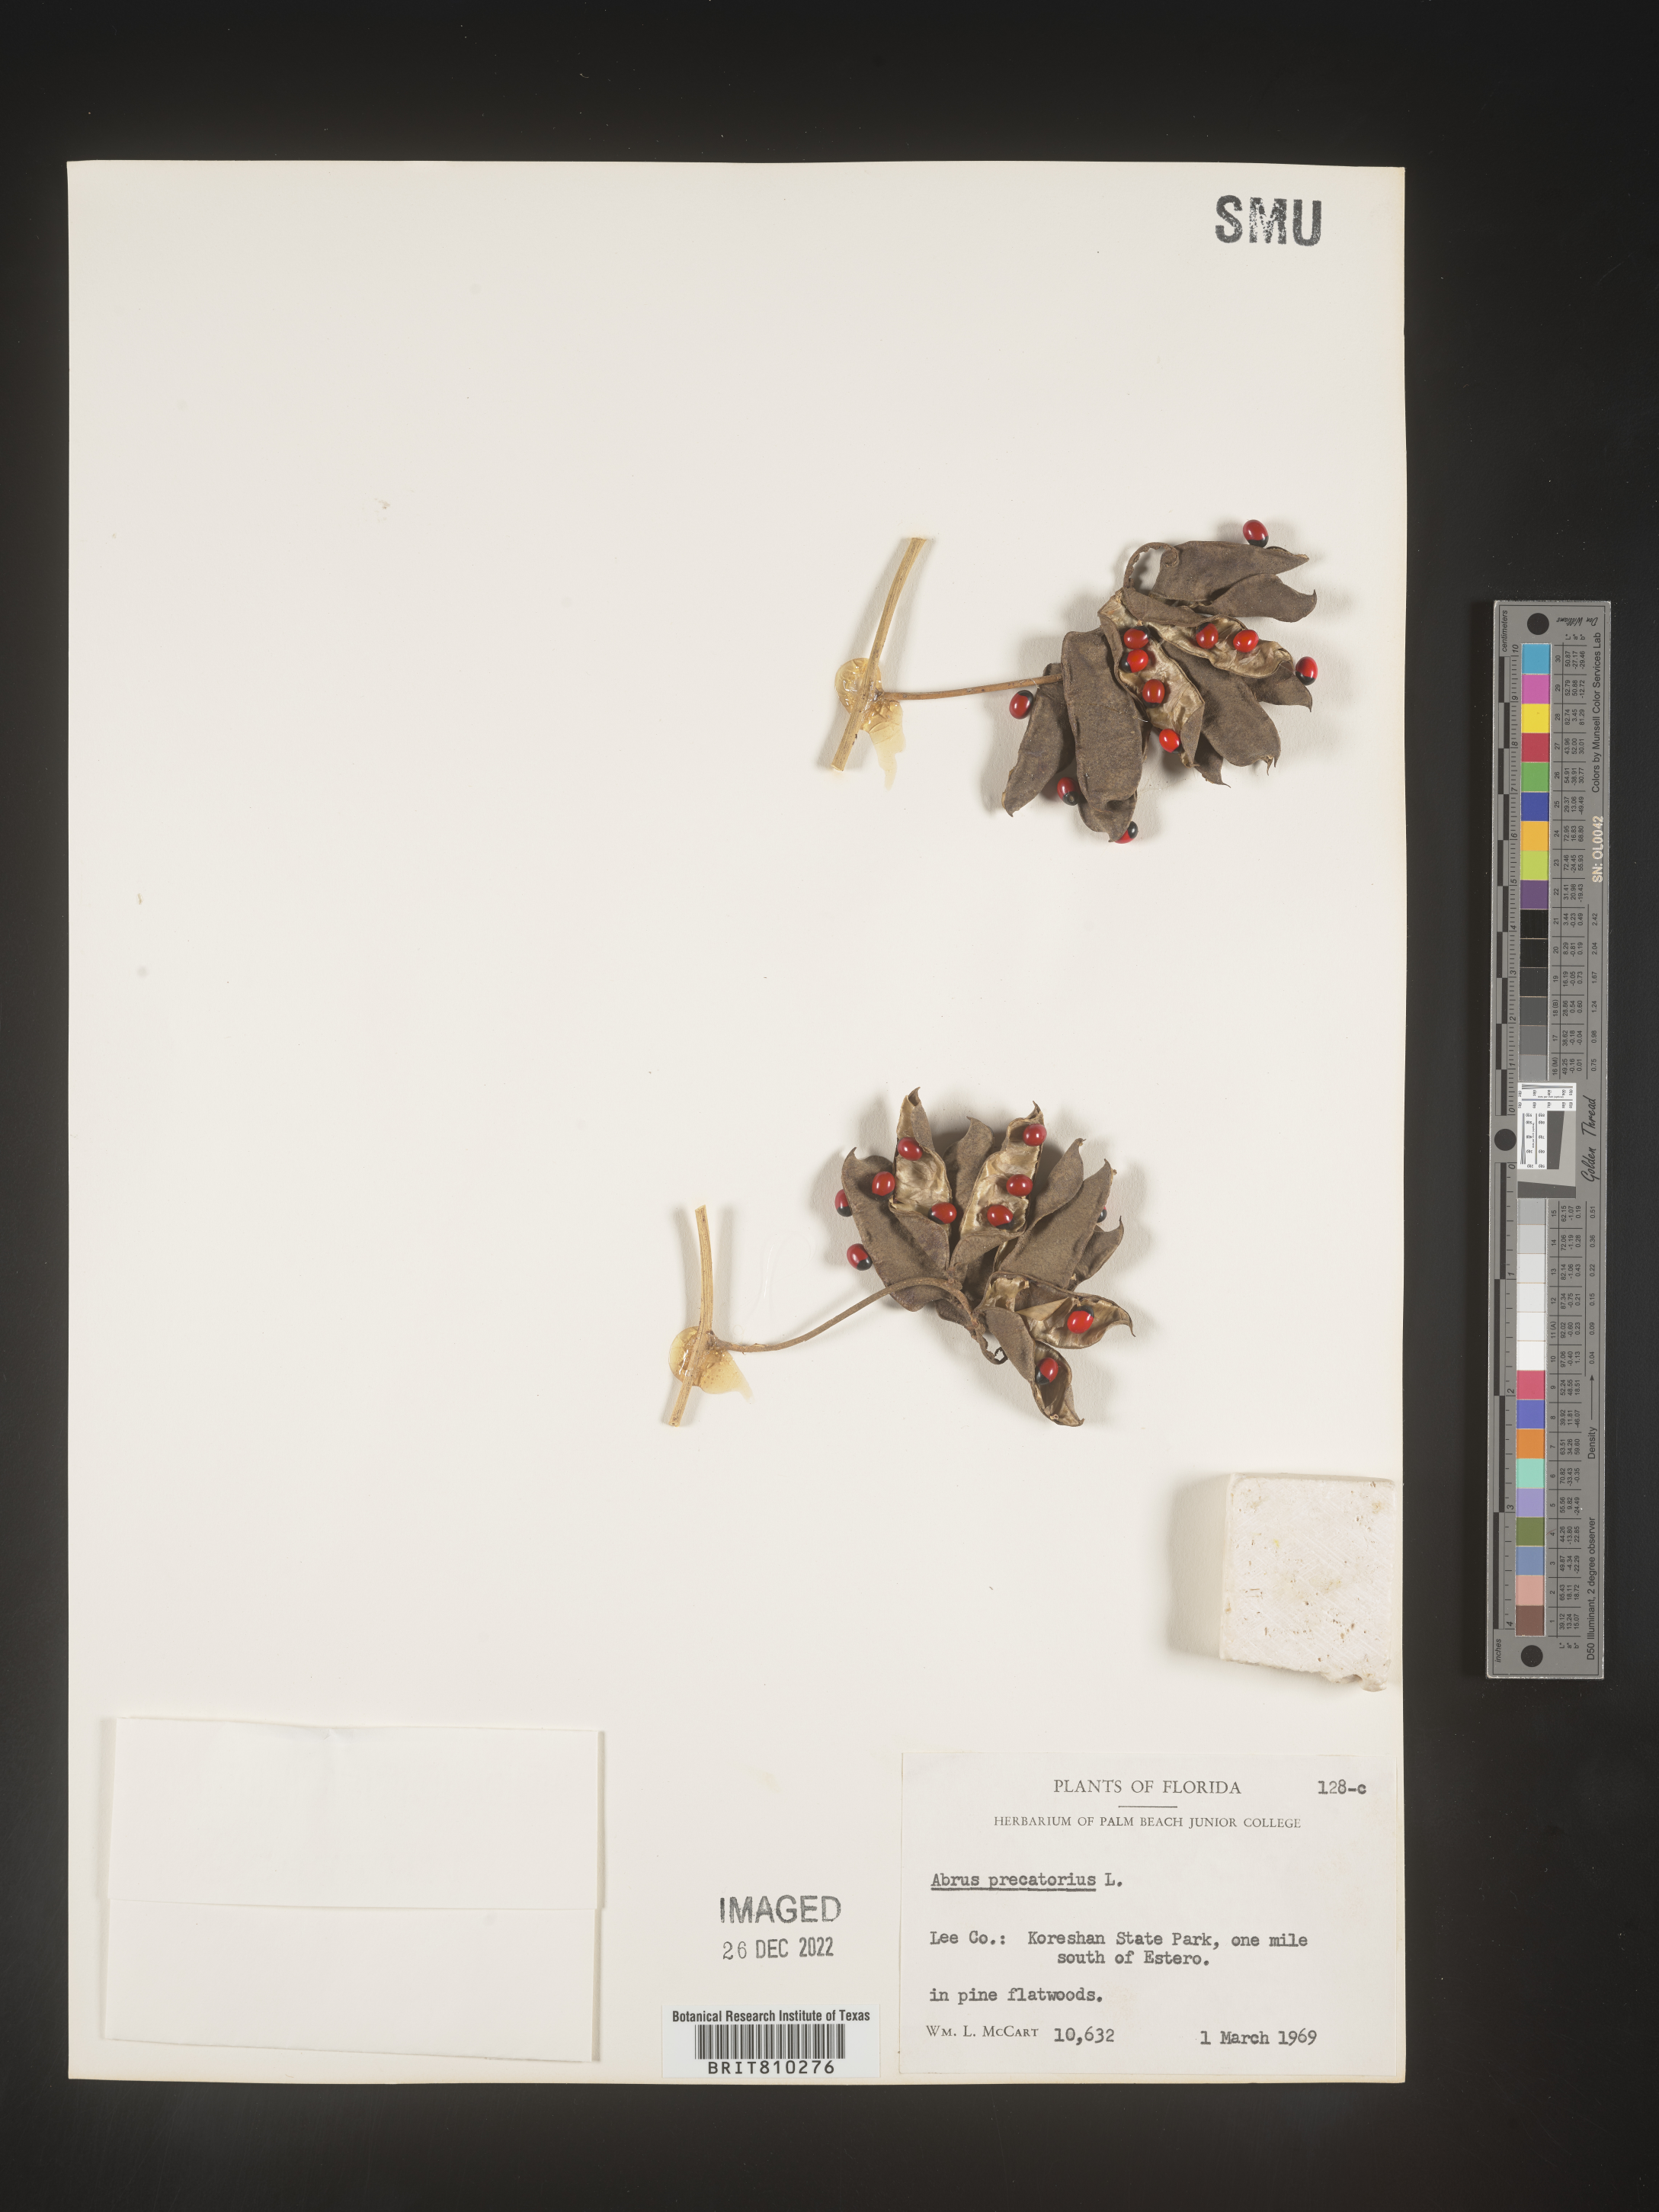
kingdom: Plantae
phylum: Tracheophyta
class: Magnoliopsida
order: Fabales
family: Fabaceae
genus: Abrus
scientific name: Abrus
